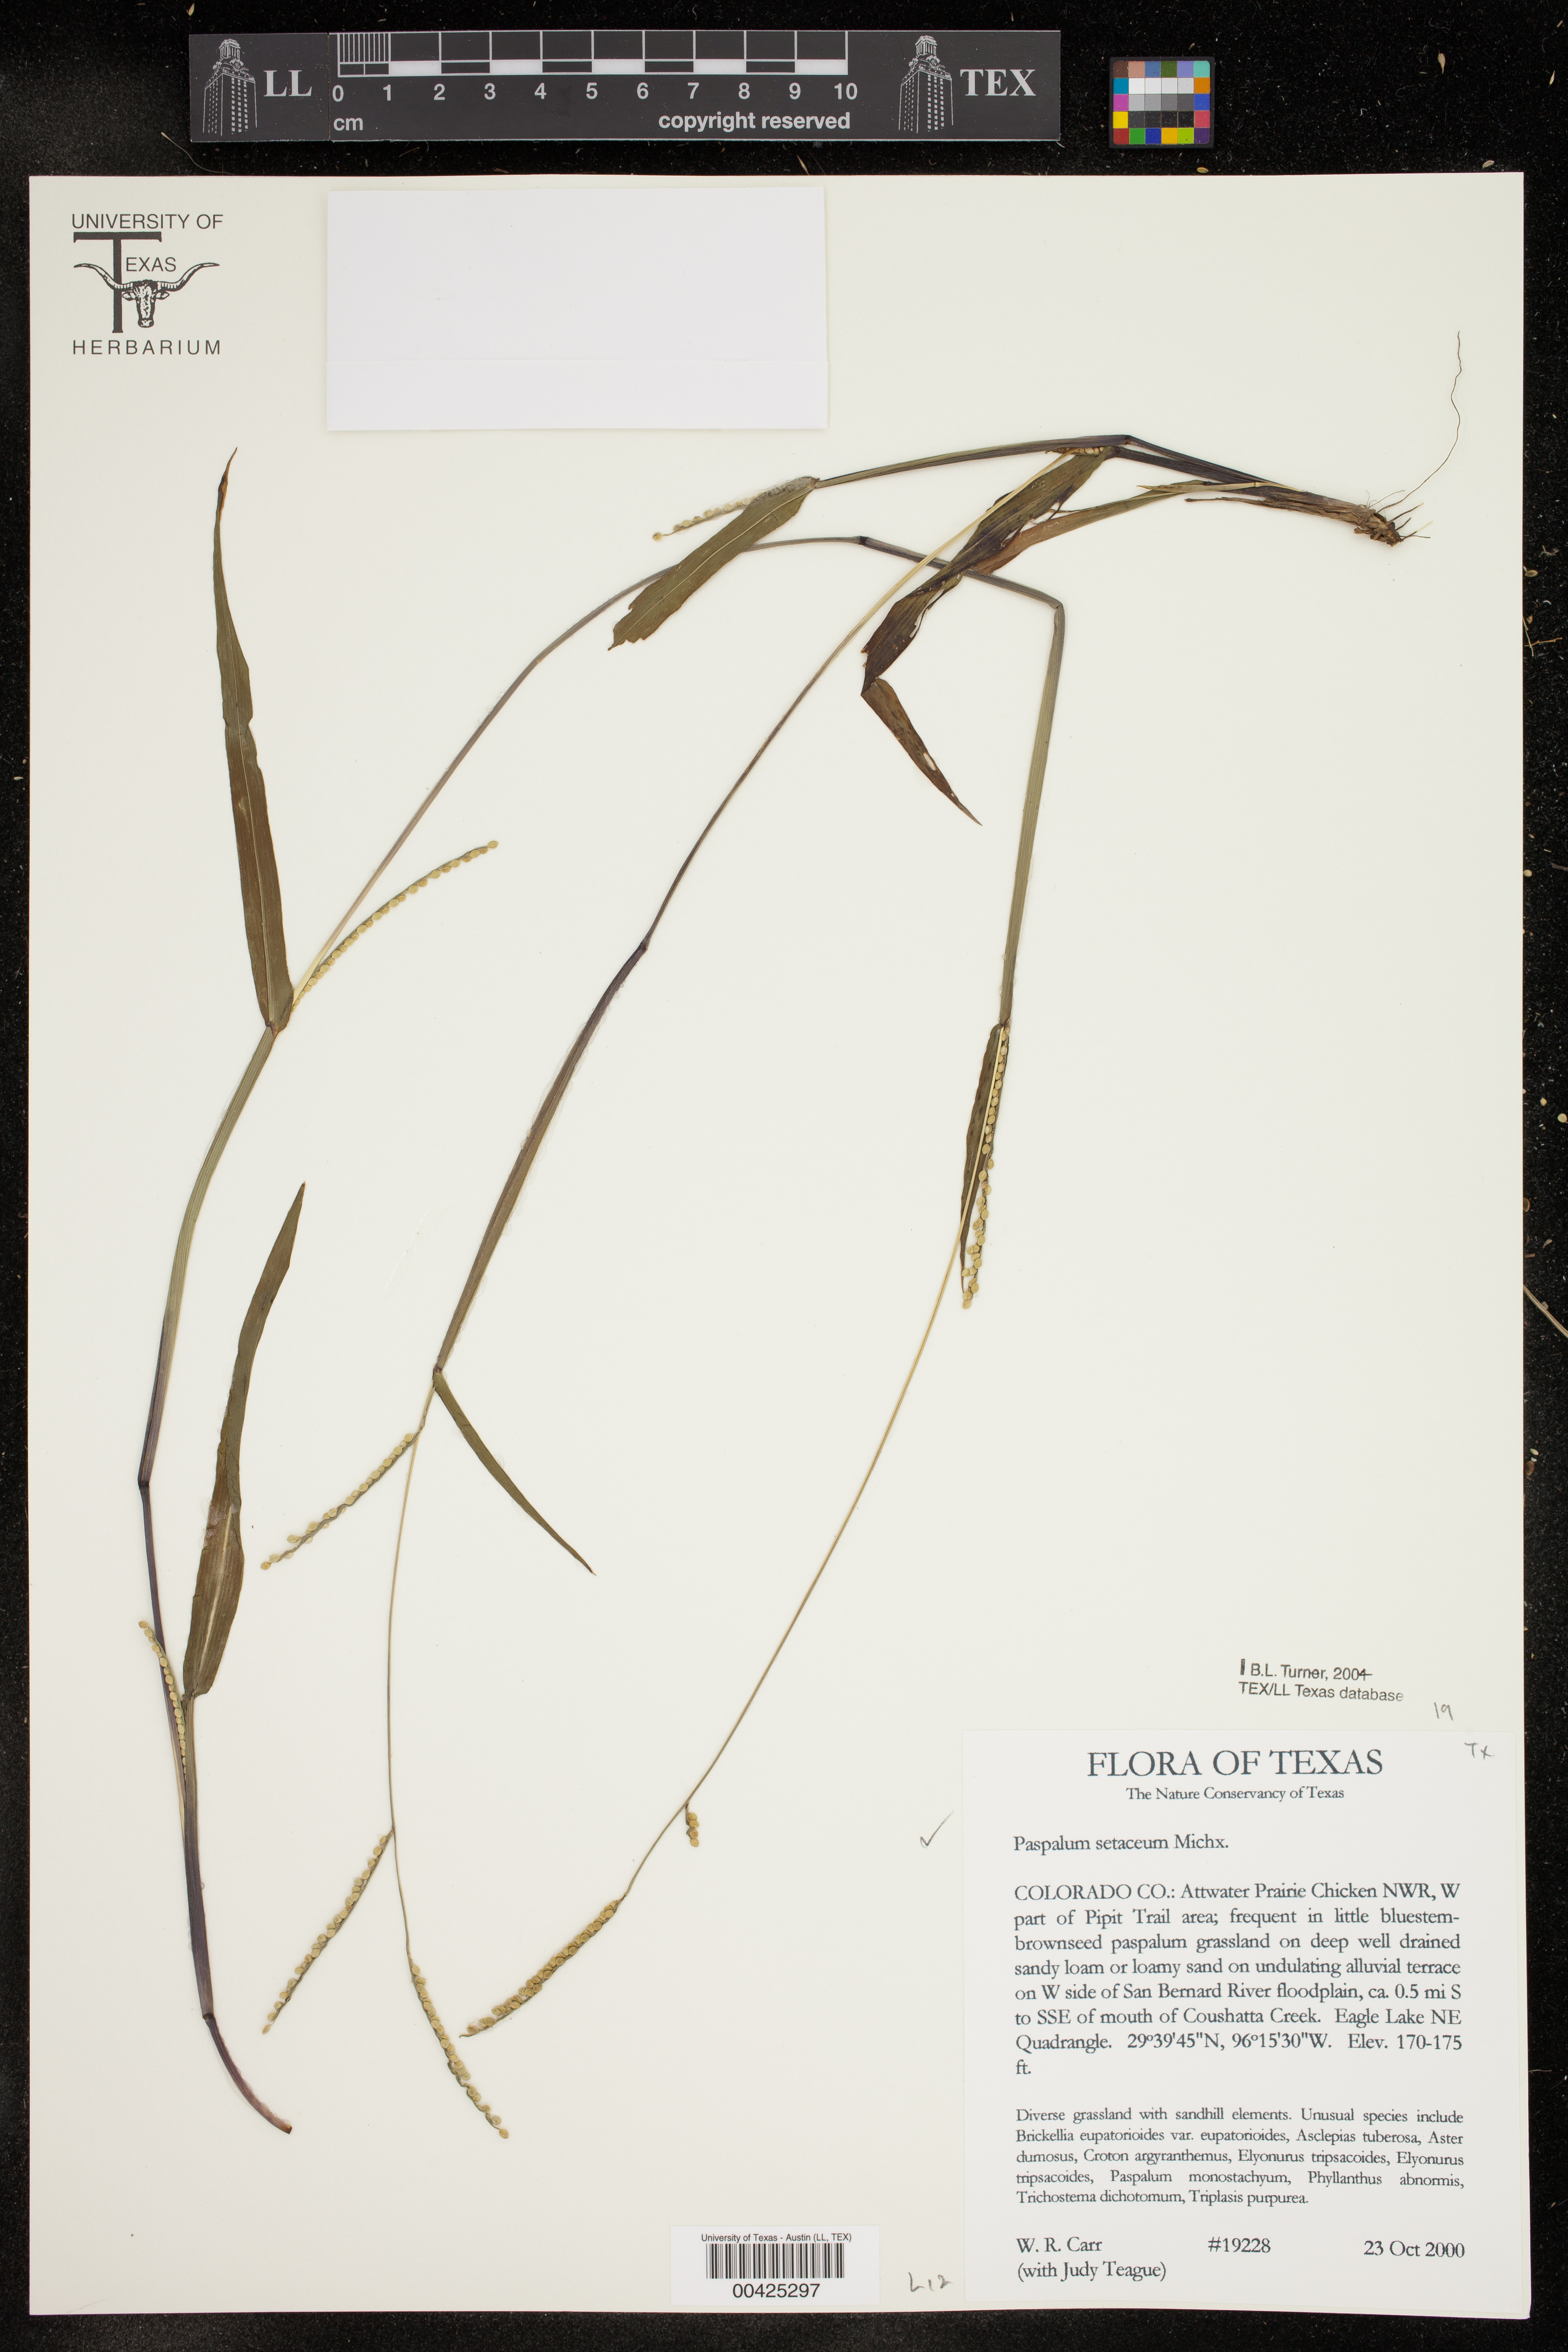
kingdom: Plantae
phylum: Tracheophyta
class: Liliopsida
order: Poales
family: Poaceae
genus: Paspalum
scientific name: Paspalum setaceum
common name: Slender paspalum
